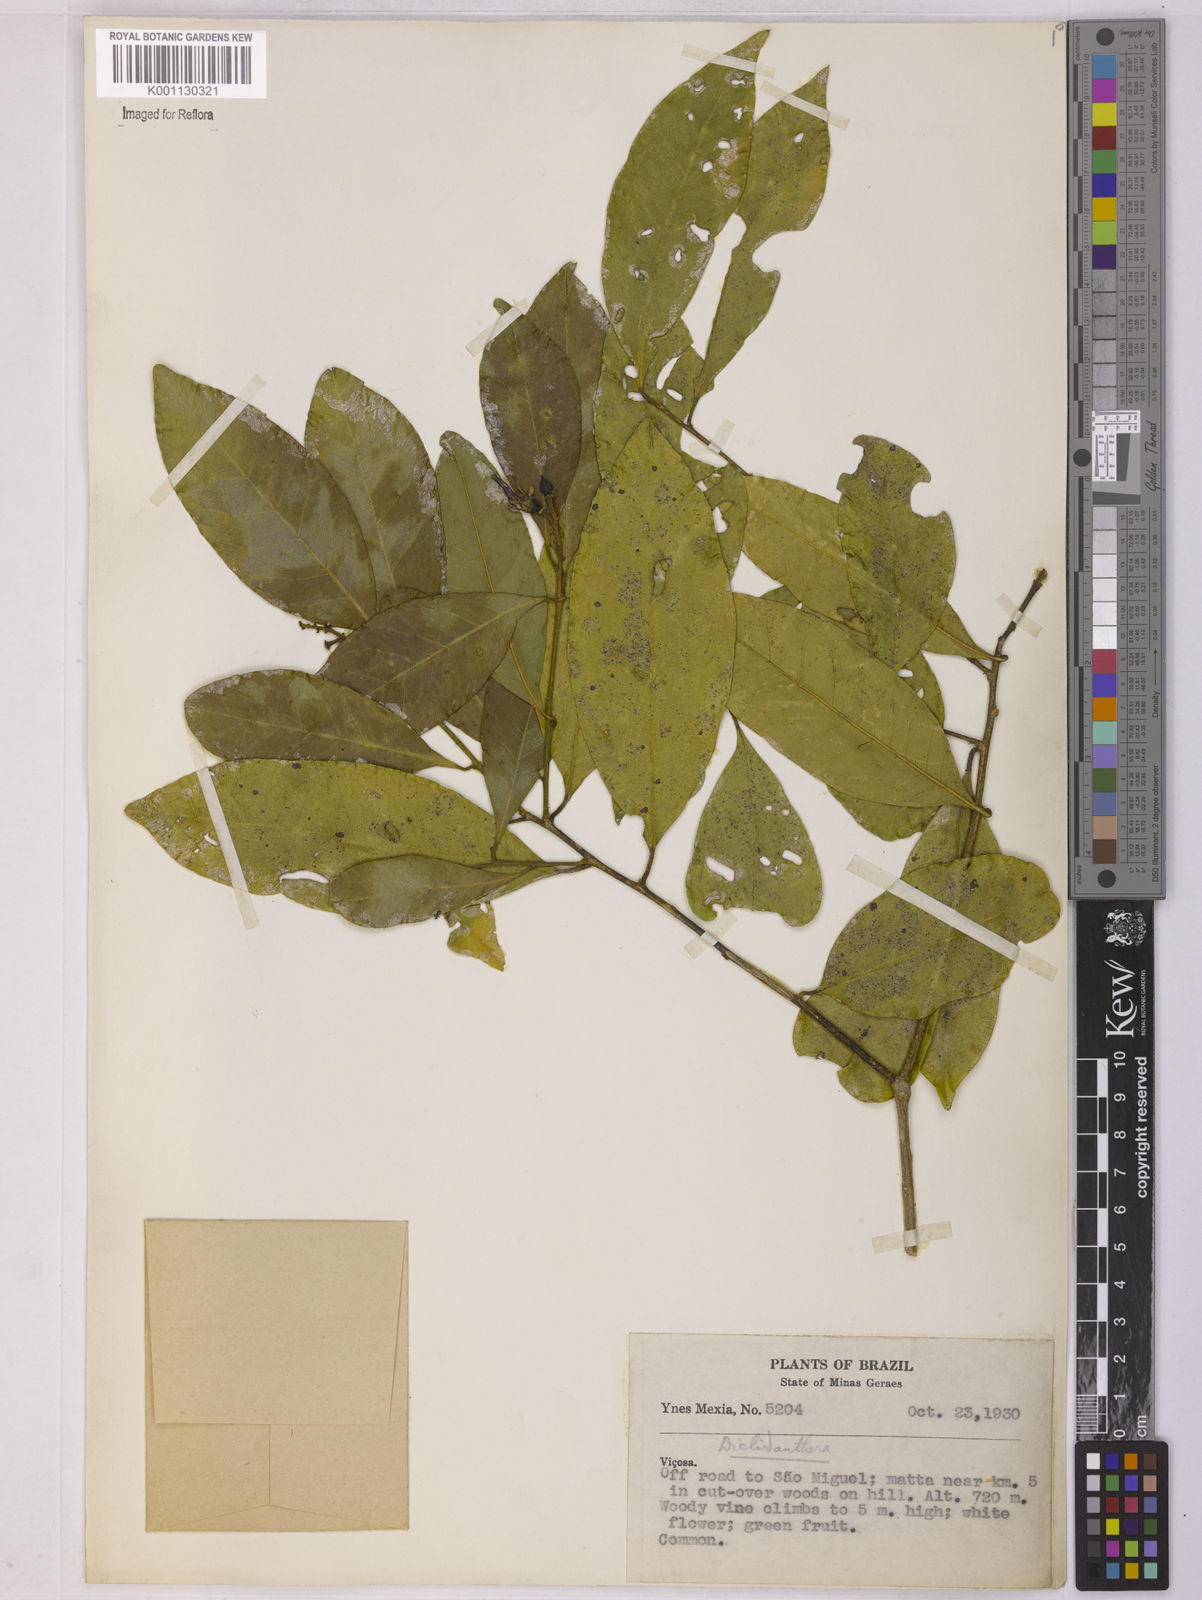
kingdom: Plantae
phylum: Tracheophyta
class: Magnoliopsida
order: Fabales
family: Polygalaceae
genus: Diclidanthera
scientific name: Diclidanthera laurifolia
